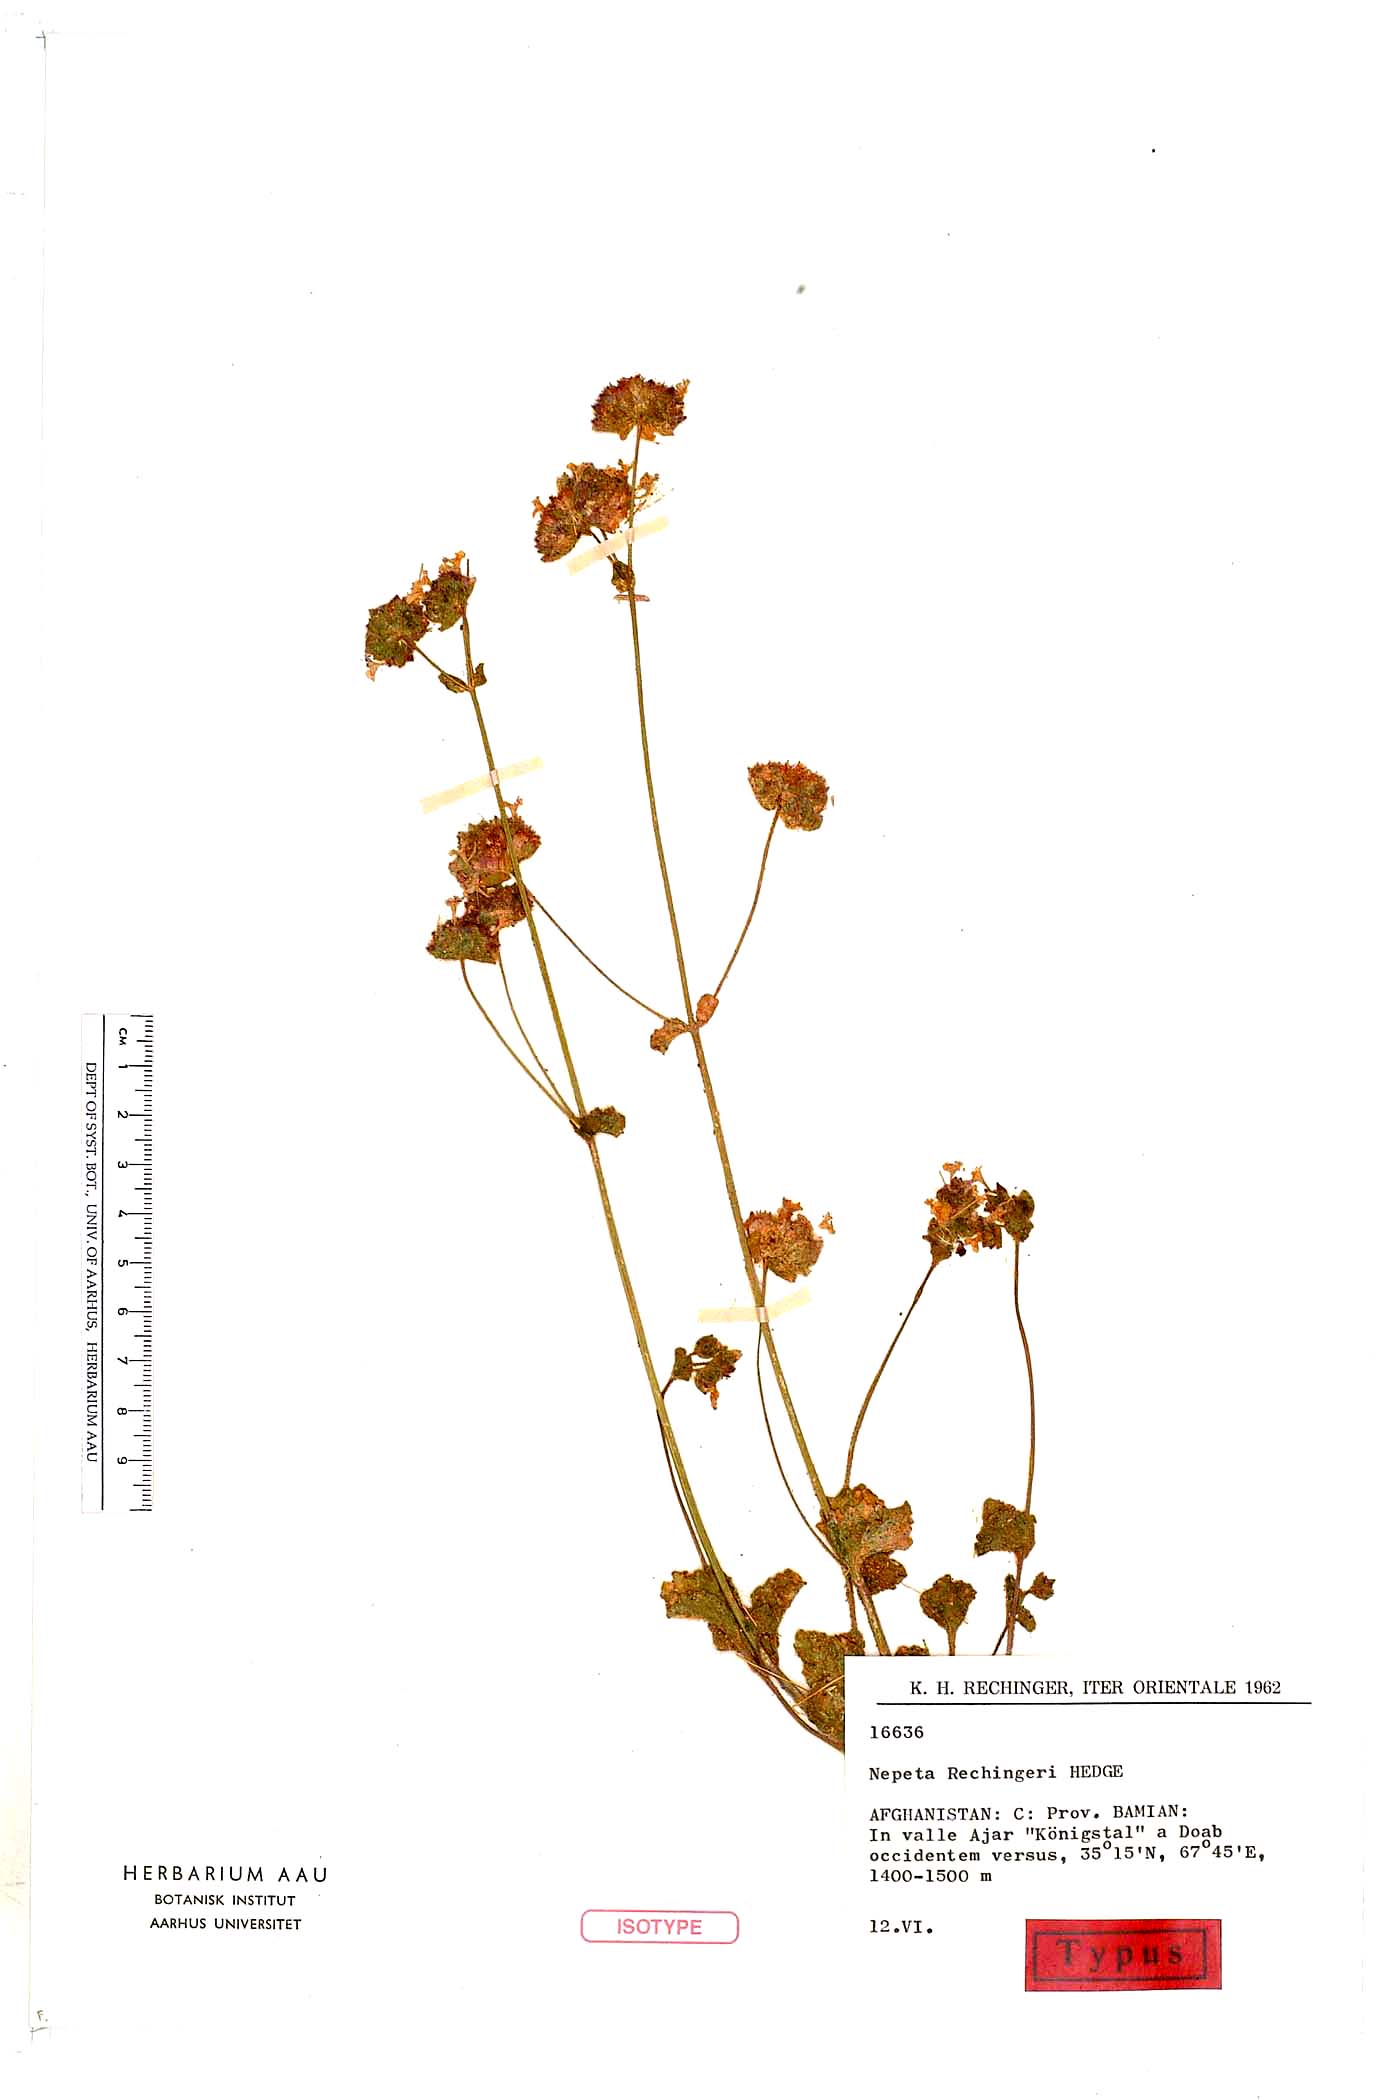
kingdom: Plantae
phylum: Tracheophyta
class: Magnoliopsida
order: Lamiales
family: Lamiaceae
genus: Nepeta
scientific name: Nepeta rechingeri
